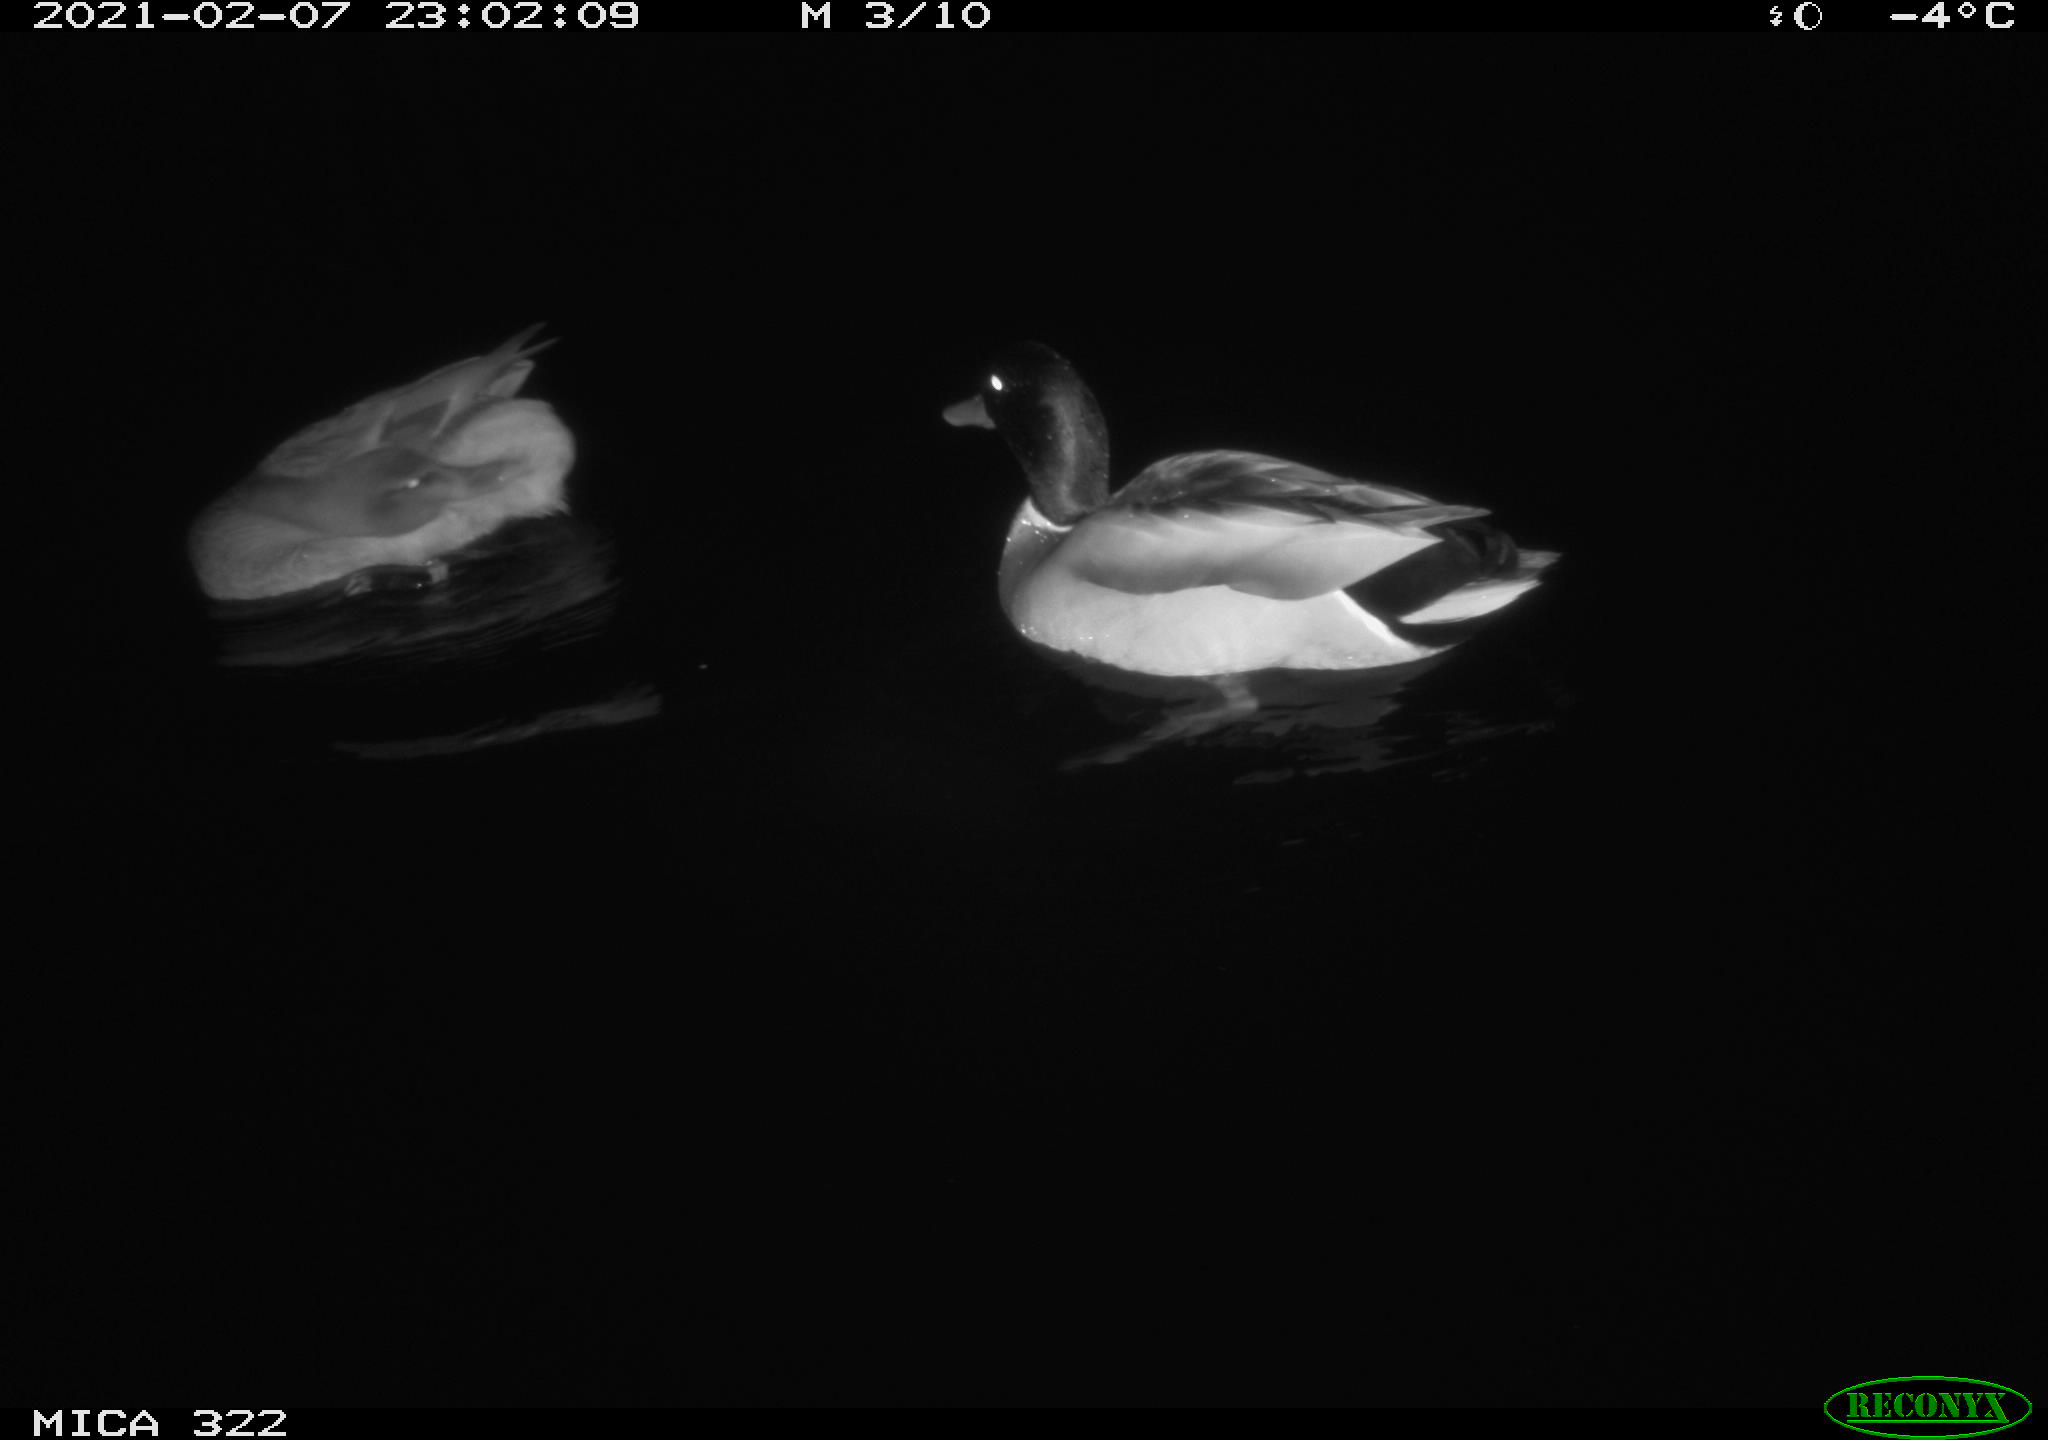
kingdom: Animalia
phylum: Chordata
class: Aves
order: Anseriformes
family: Anatidae
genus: Anas
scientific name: Anas platyrhynchos
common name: Mallard
